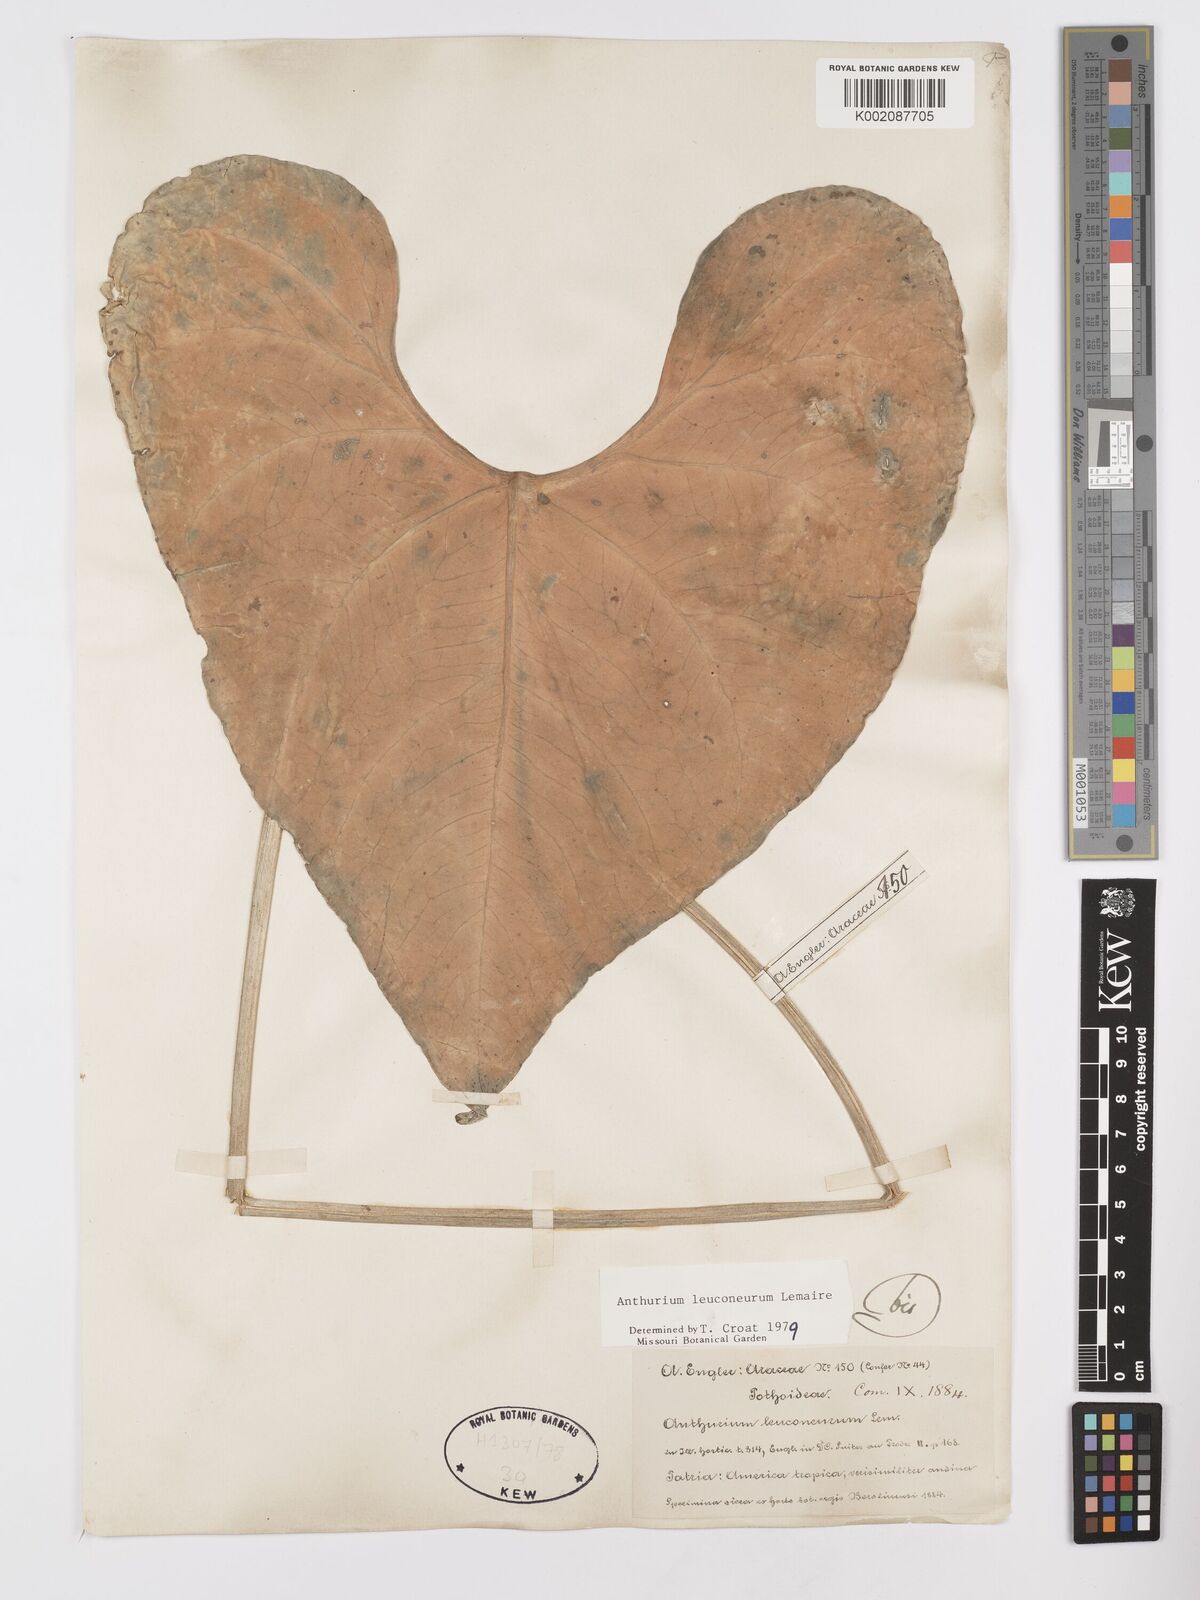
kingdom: Plantae
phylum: Tracheophyta
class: Liliopsida
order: Alismatales
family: Araceae
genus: Anthurium
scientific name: Anthurium leuconeurum
